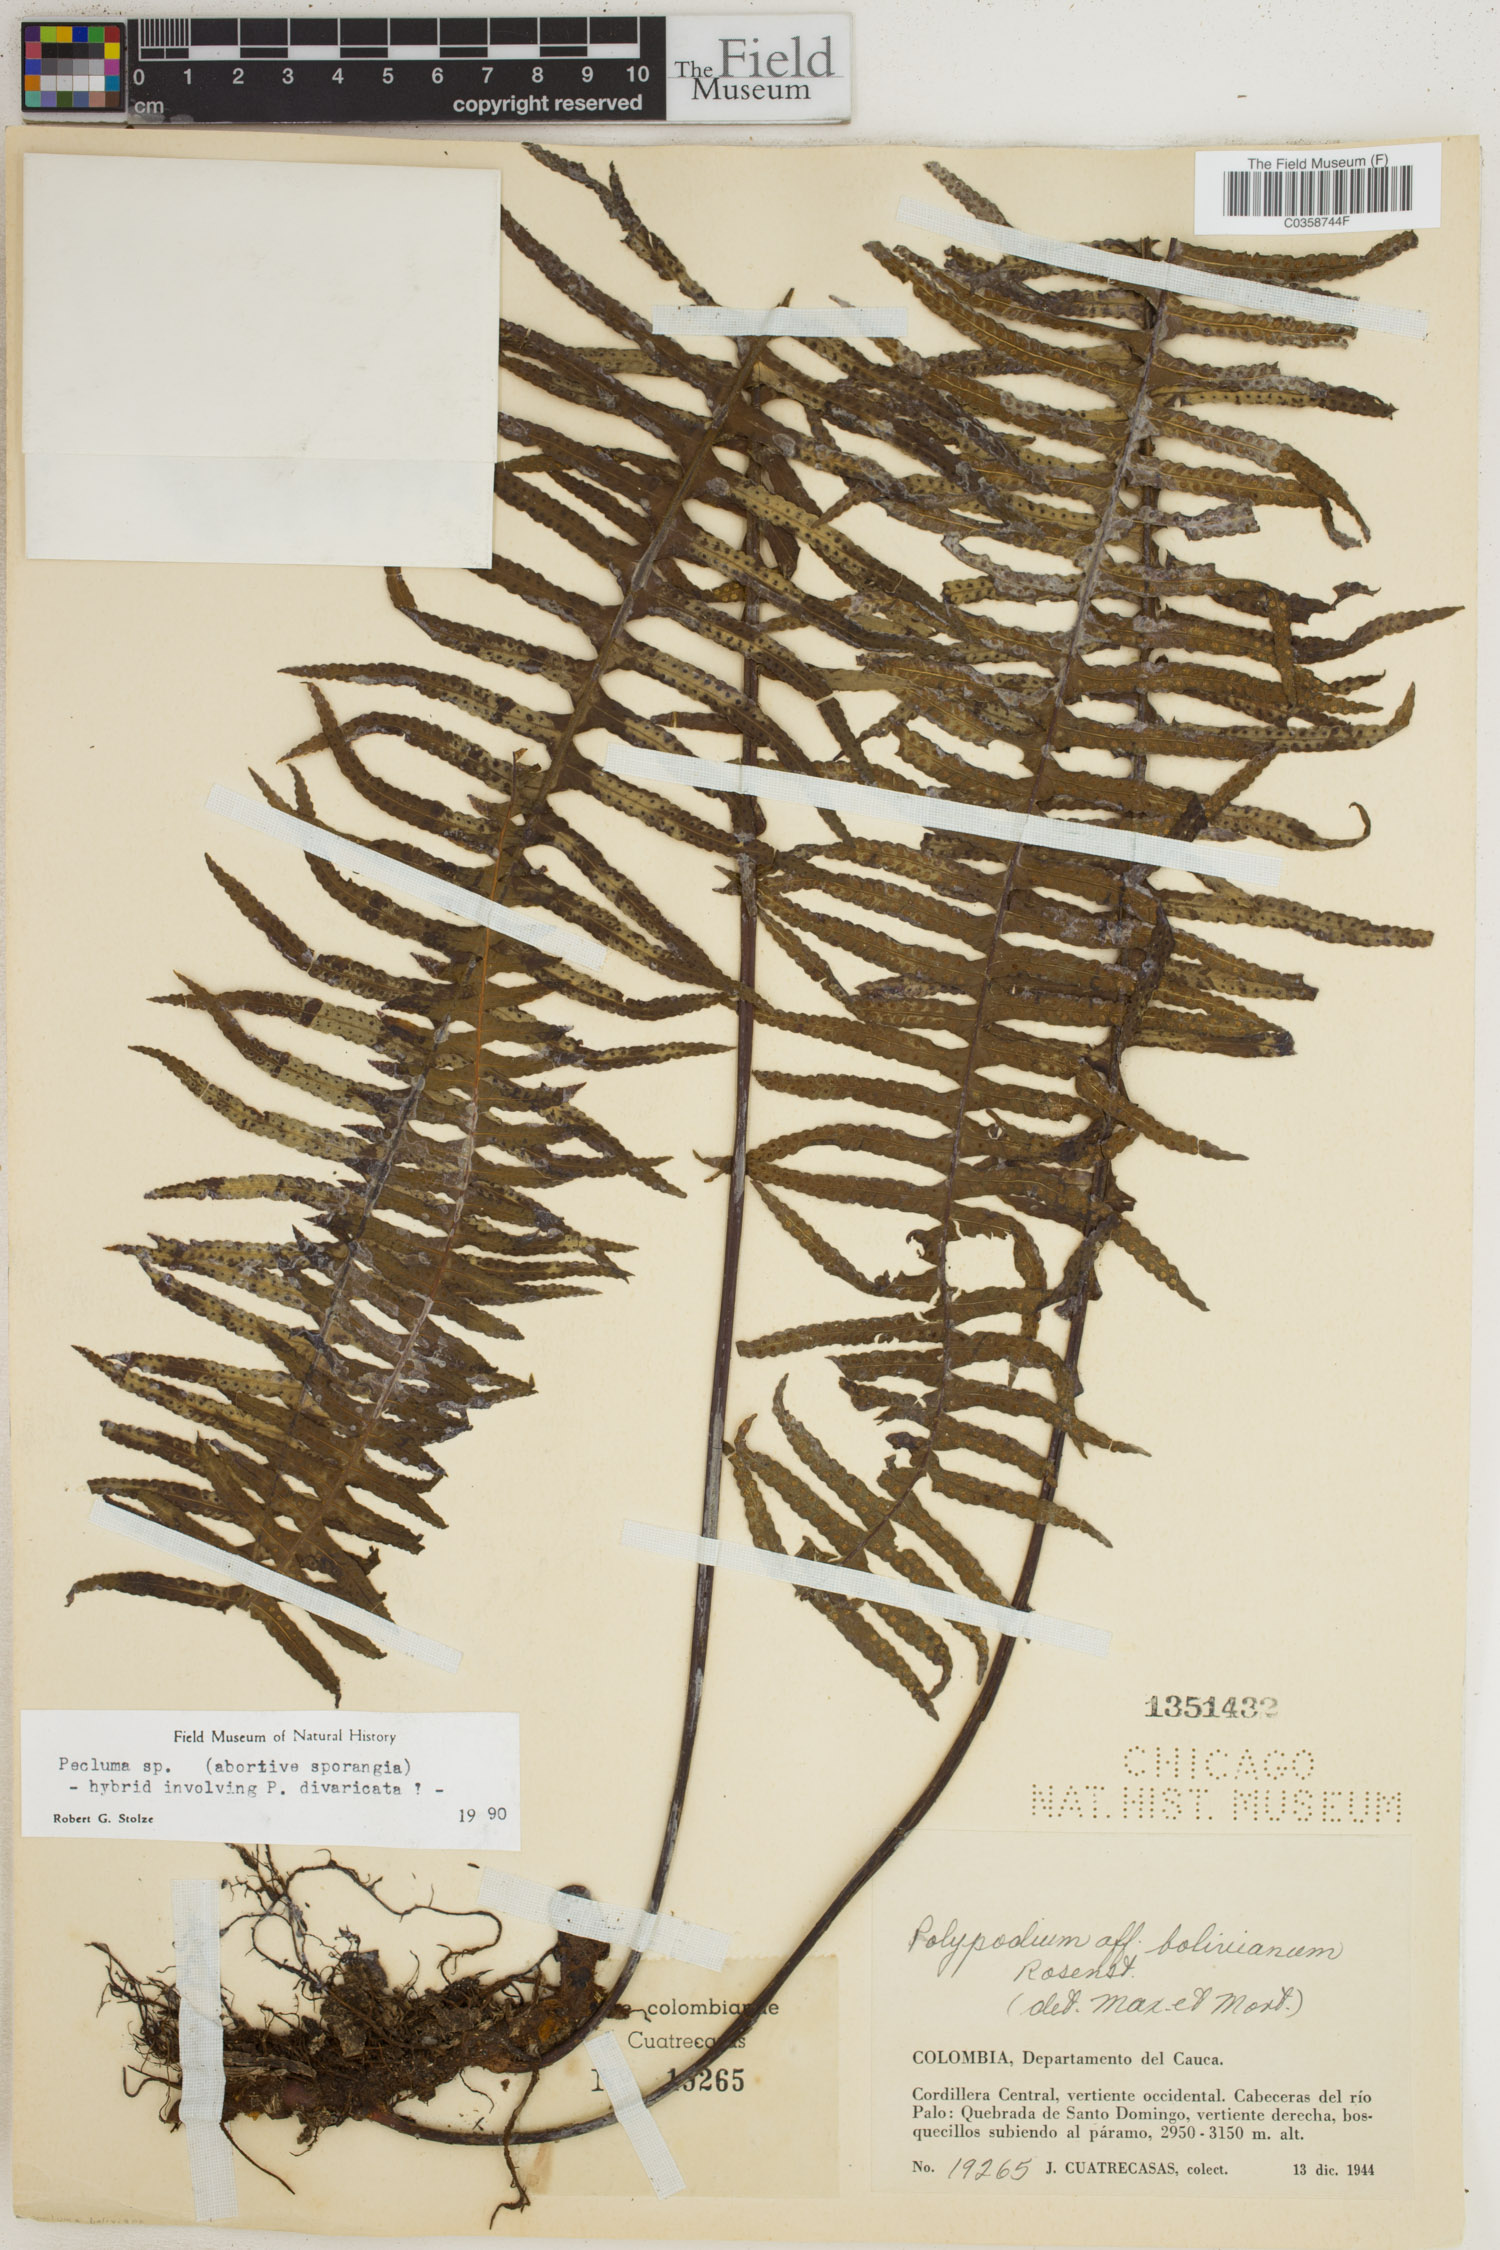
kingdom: Plantae
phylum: Tracheophyta
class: Polypodiopsida
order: Polypodiales
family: Polypodiaceae
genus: Pecluma
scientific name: Pecluma
